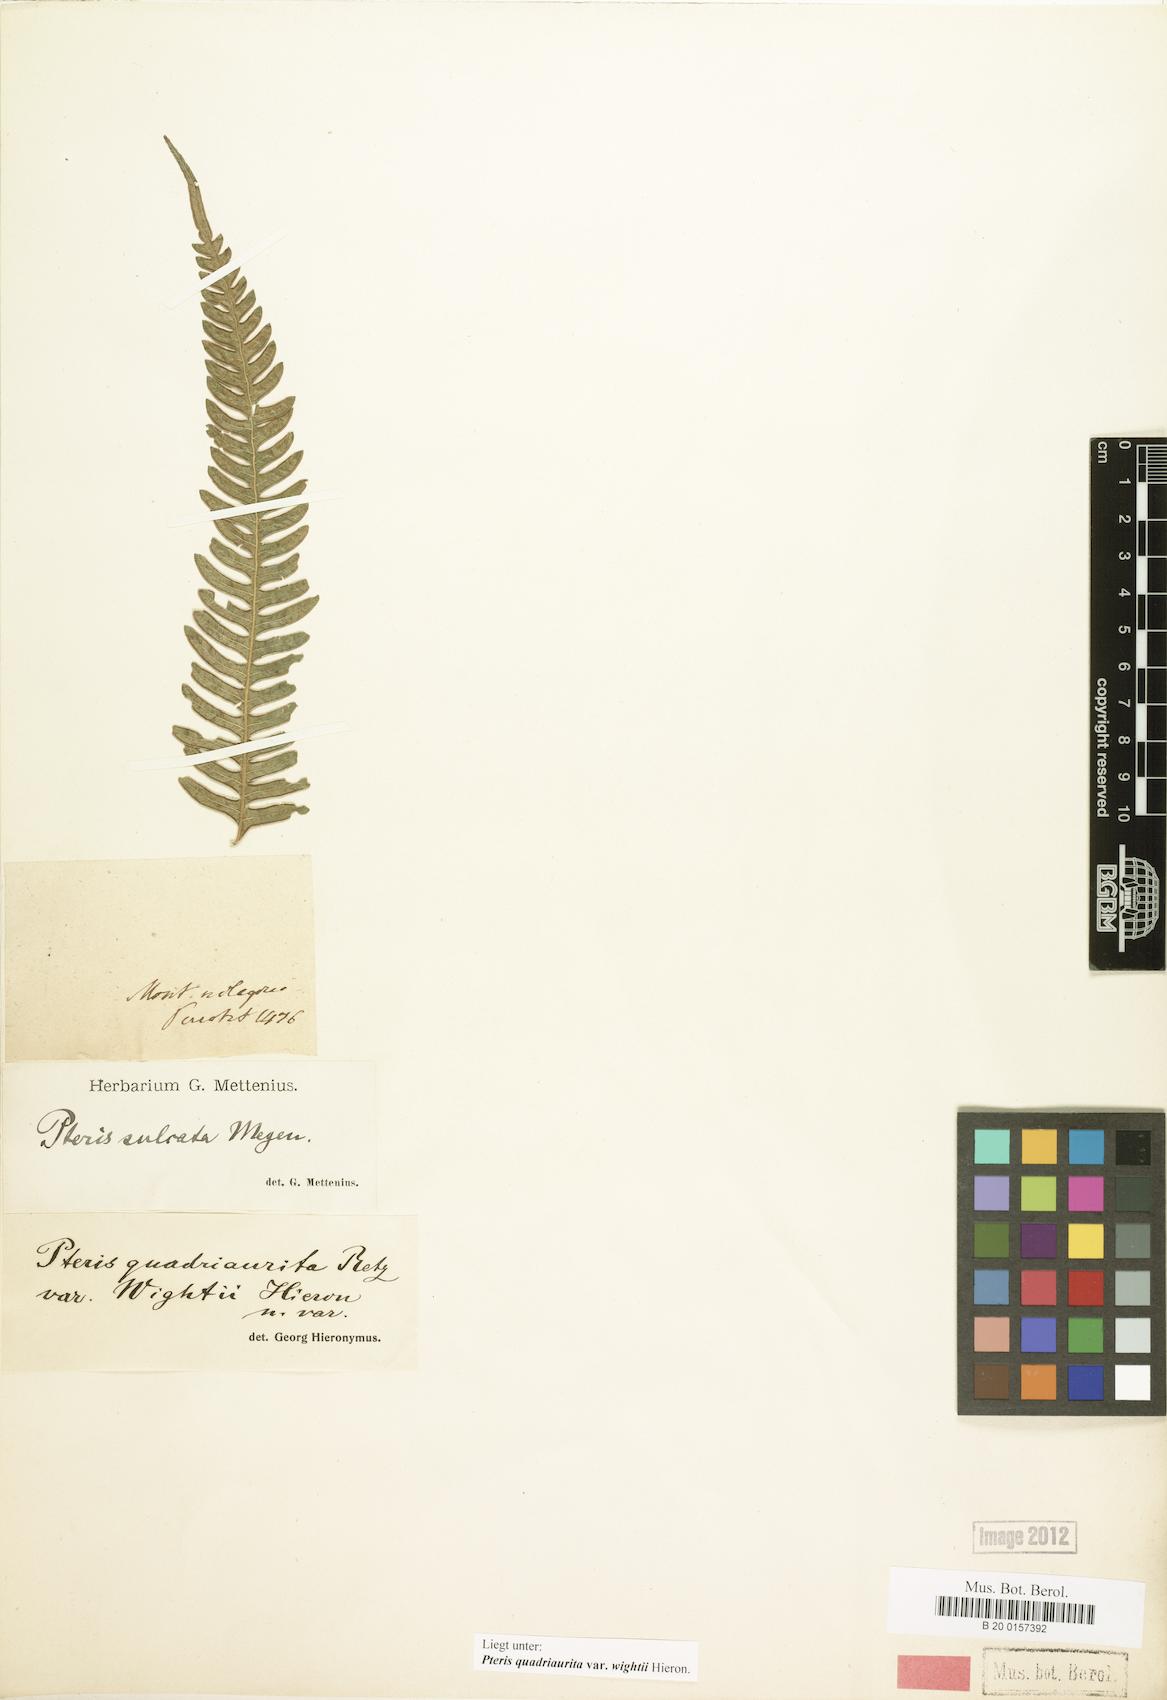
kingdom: Plantae
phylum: Tracheophyta
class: Polypodiopsida
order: Polypodiales
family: Pteridaceae
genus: Pteris
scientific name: Pteris quadriaurita
